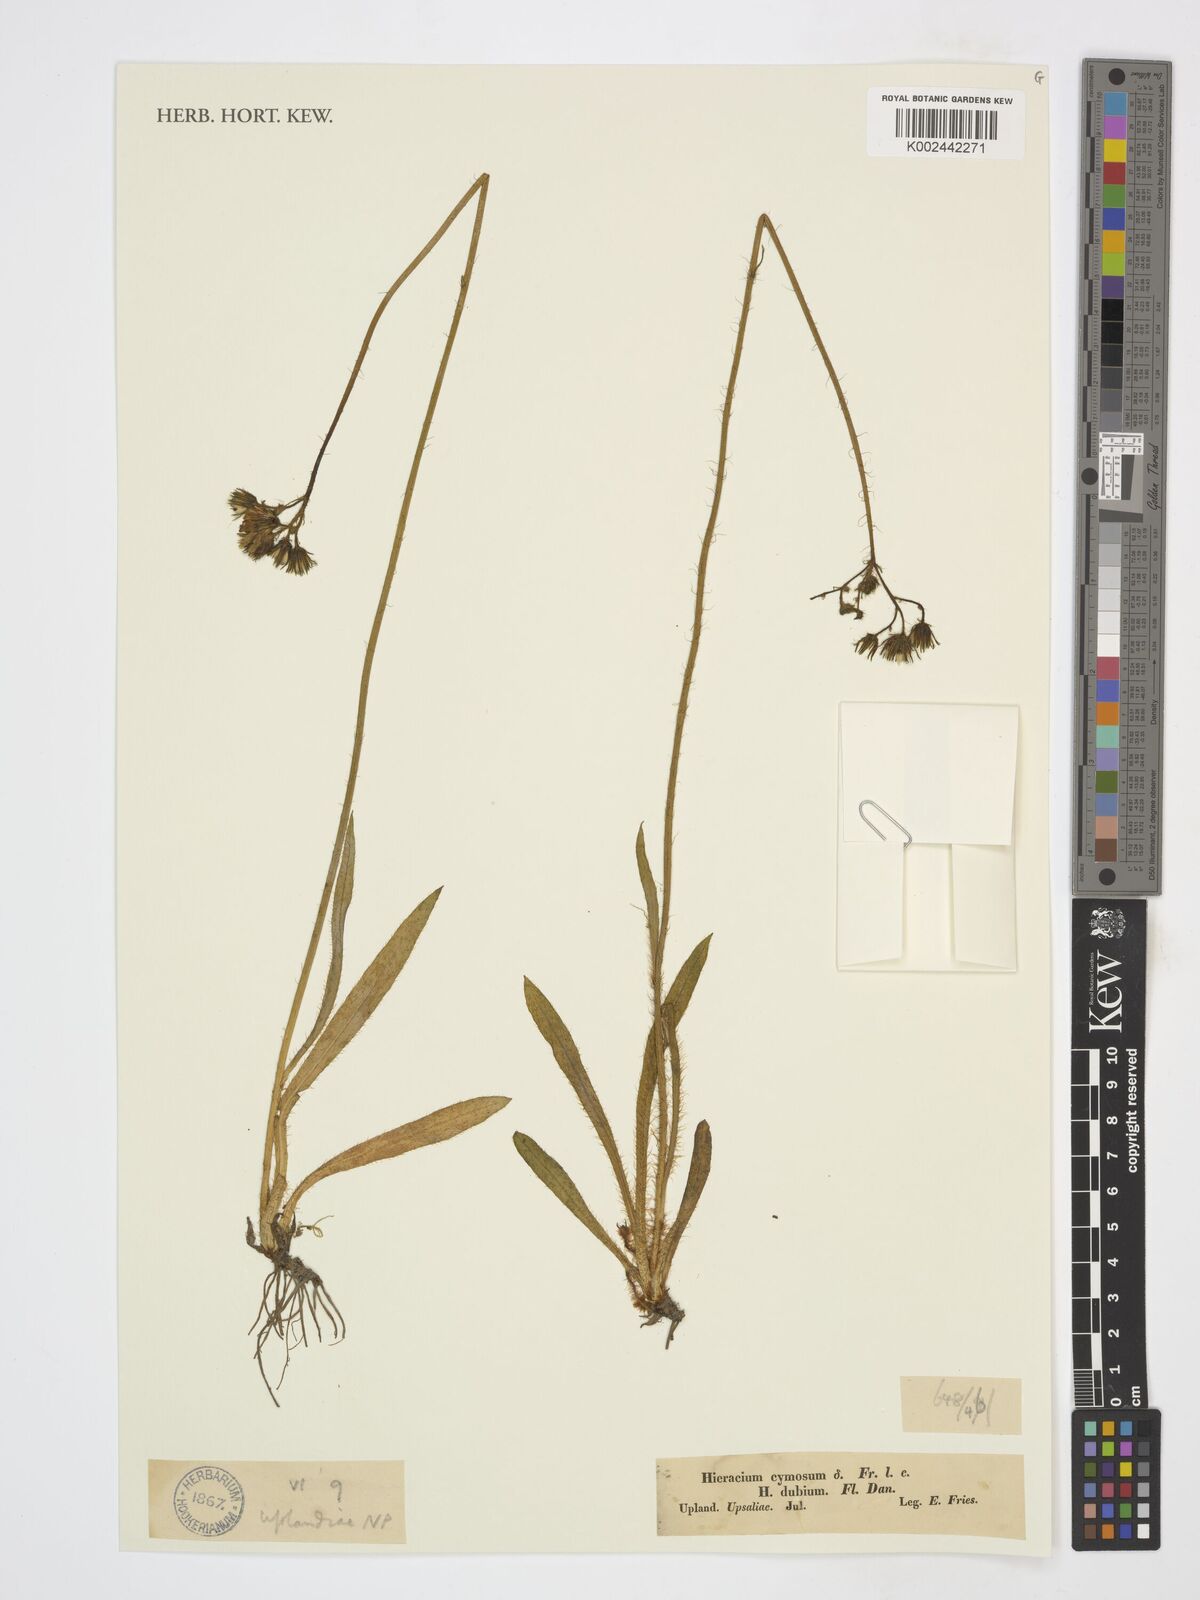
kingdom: Plantae
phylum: Tracheophyta
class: Magnoliopsida
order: Asterales
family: Asteraceae
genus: Pilosella
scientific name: Pilosella cymosa
